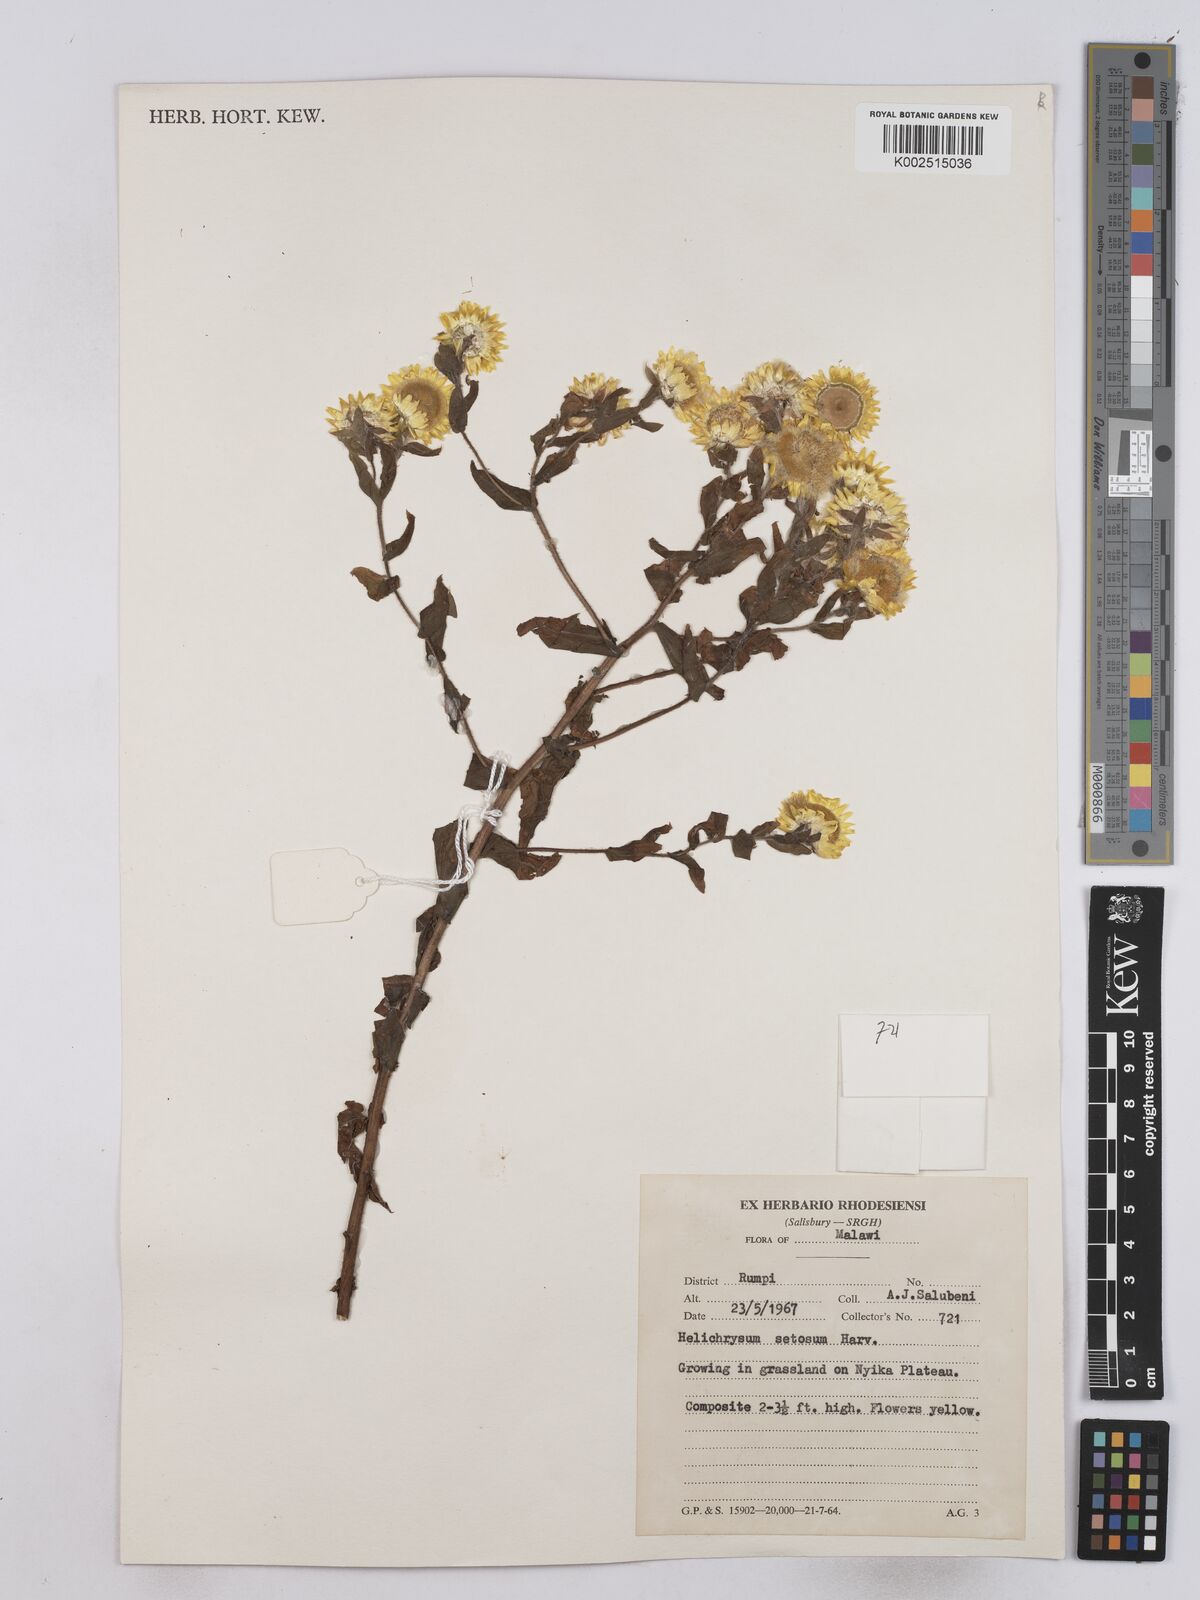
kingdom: Plantae
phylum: Tracheophyta
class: Magnoliopsida
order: Asterales
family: Asteraceae
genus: Helichrysum
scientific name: Helichrysum setosum
